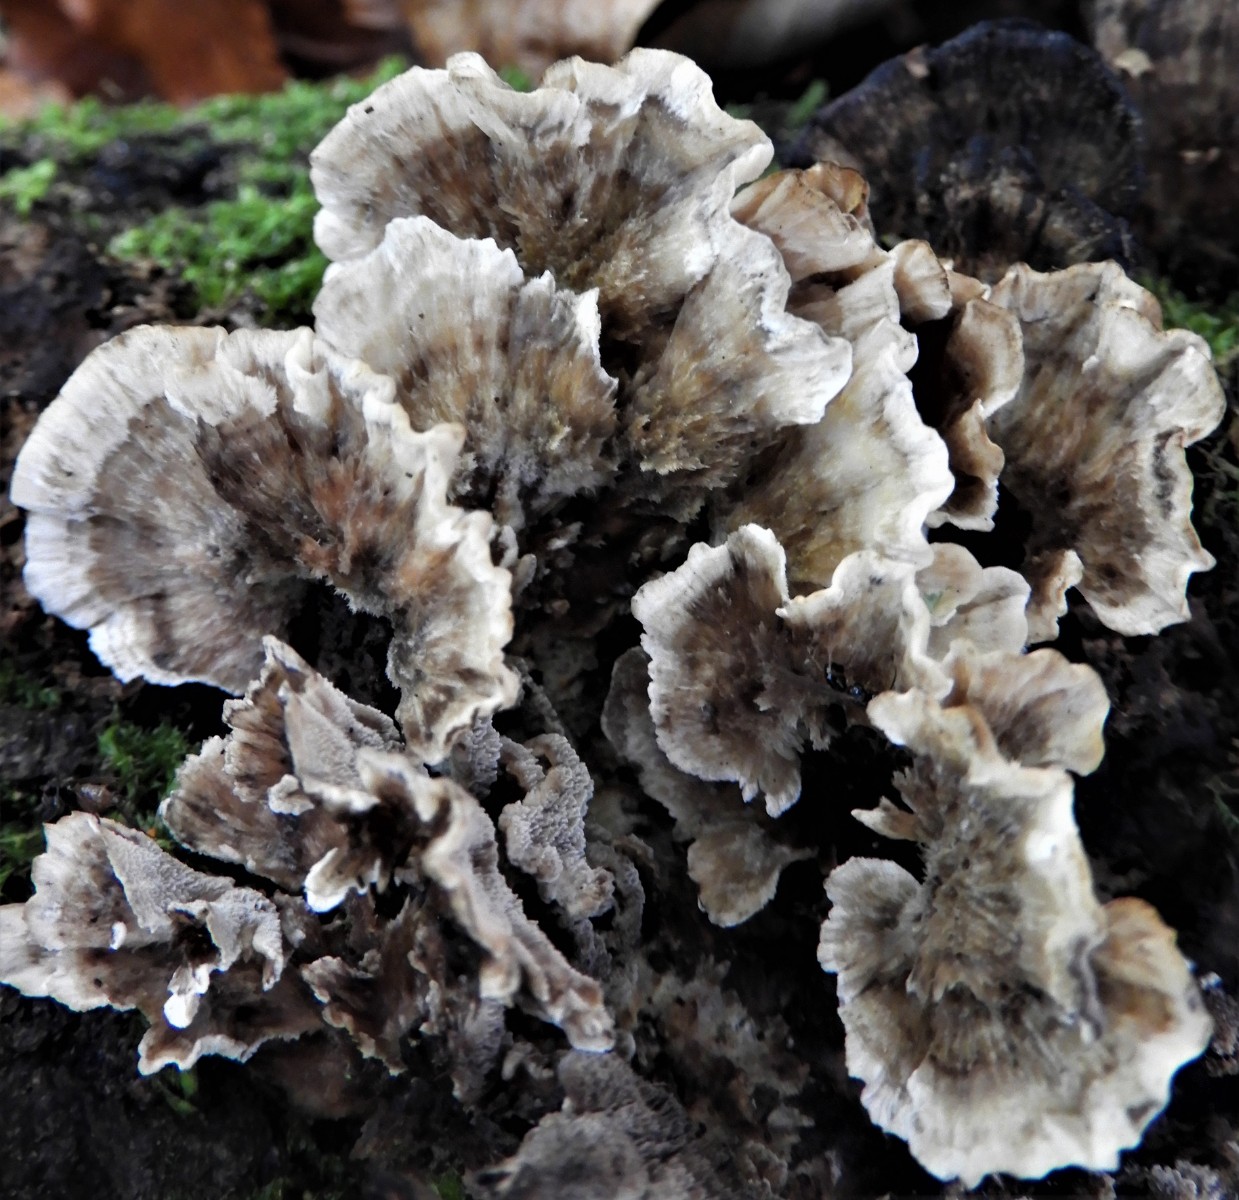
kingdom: Fungi
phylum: Basidiomycota
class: Agaricomycetes
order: Polyporales
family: Polyporaceae
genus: Trametes
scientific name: Trametes versicolor
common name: broget læderporesvamp
